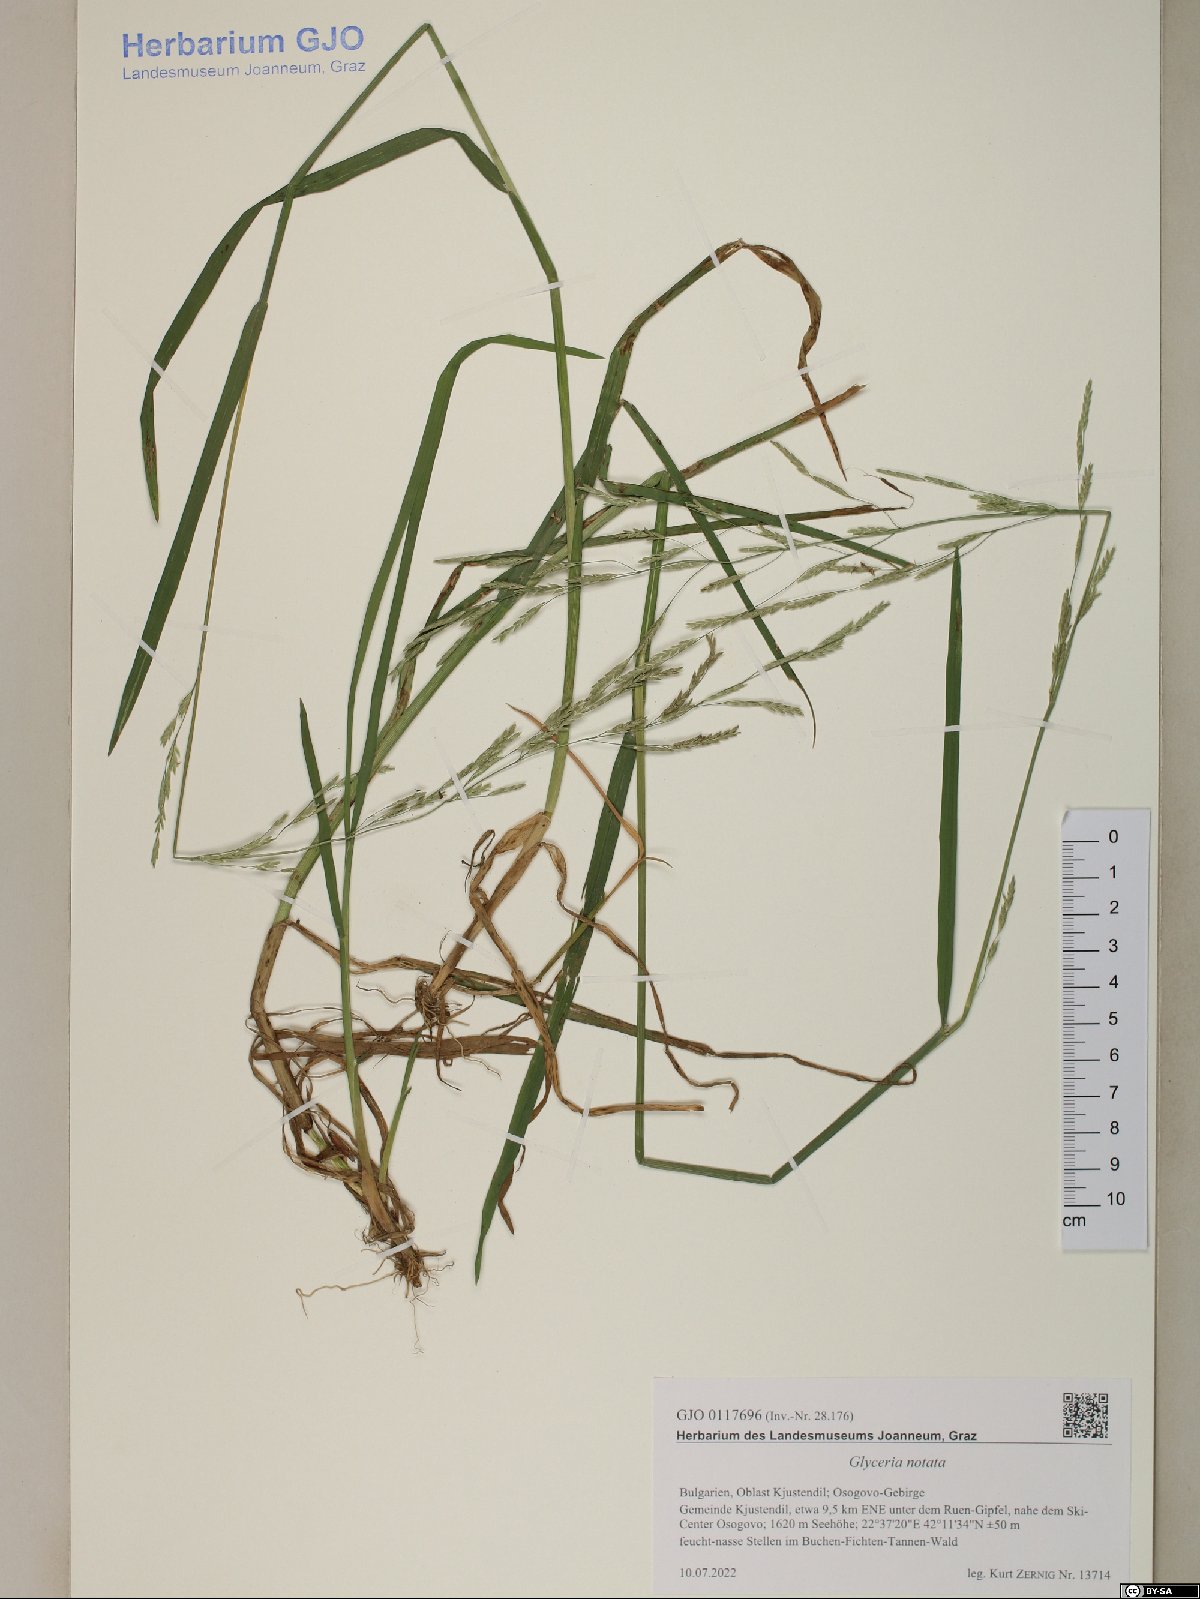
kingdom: Plantae
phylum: Tracheophyta
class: Liliopsida
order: Poales
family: Poaceae
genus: Glyceria
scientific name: Glyceria notata
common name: Plicate sweet-grass
